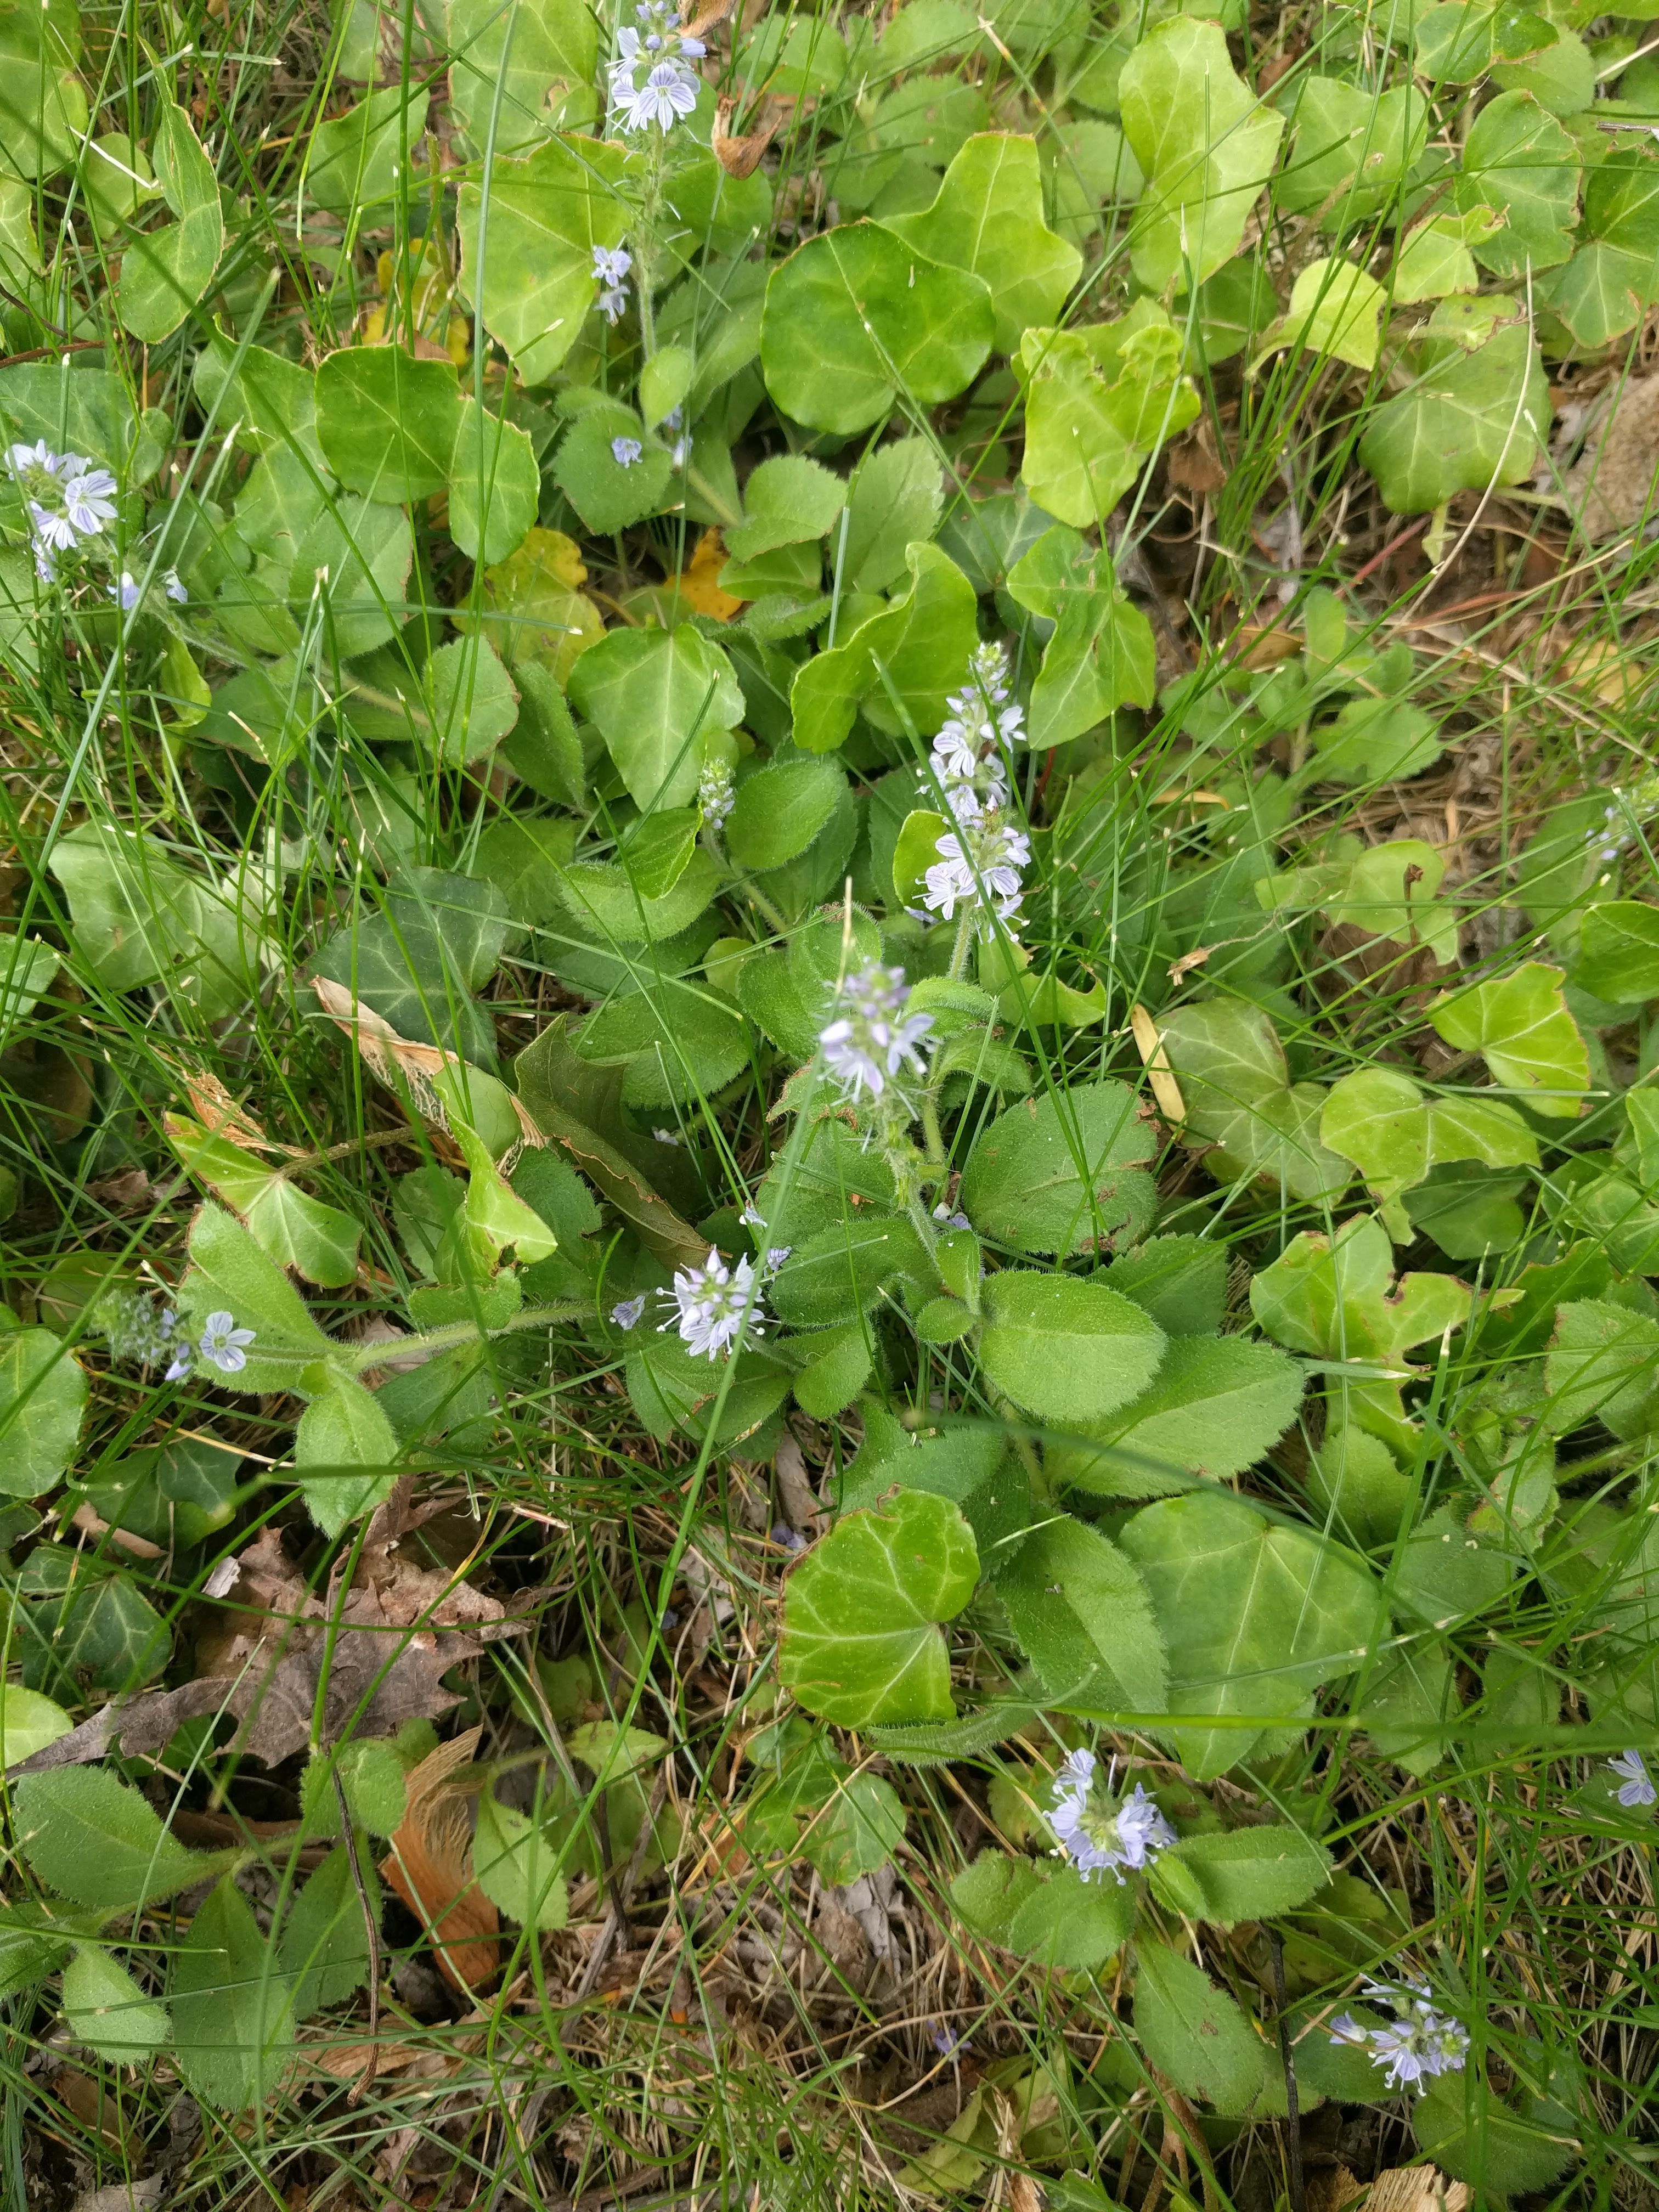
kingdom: Plantae
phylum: Tracheophyta
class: Magnoliopsida
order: Lamiales
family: Plantaginaceae
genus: Veronica
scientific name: Veronica officinalis
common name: Common speedwell
